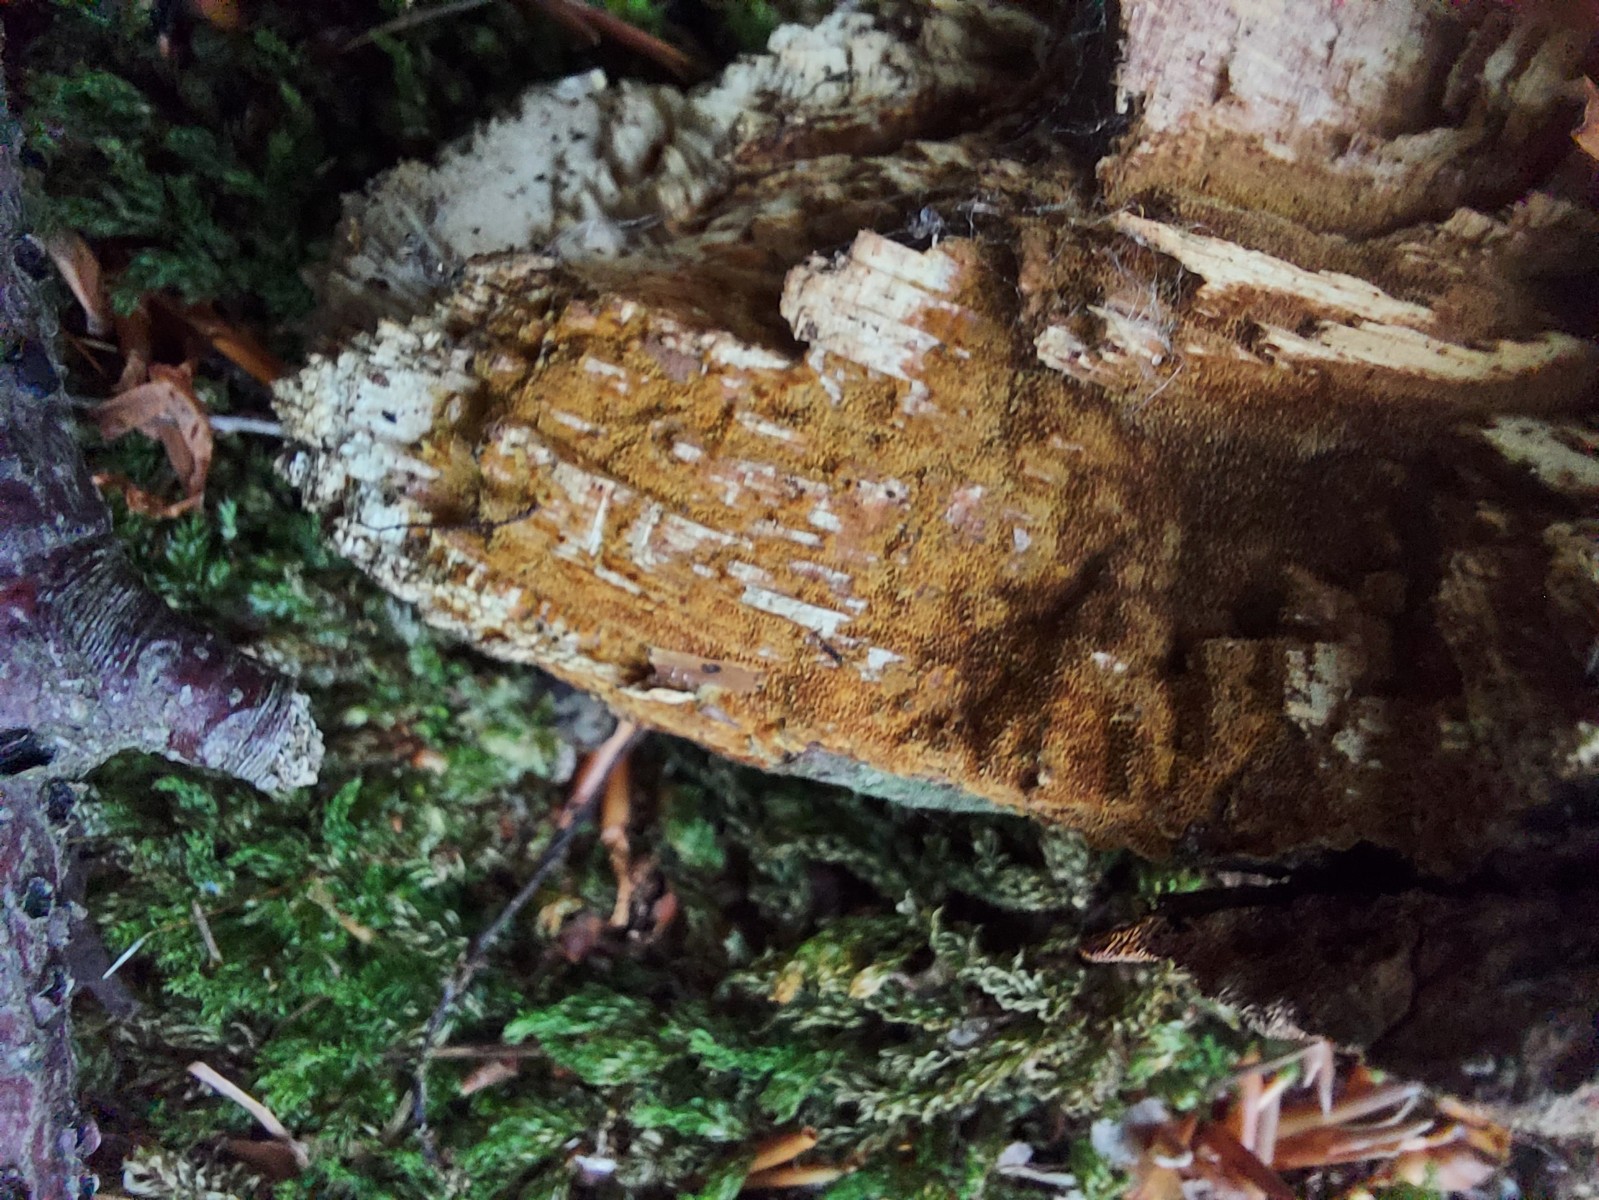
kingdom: Fungi
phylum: Basidiomycota
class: Agaricomycetes
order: Hymenochaetales
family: Hymenochaetaceae
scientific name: Hymenochaetaceae
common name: børstesvampfamilien
